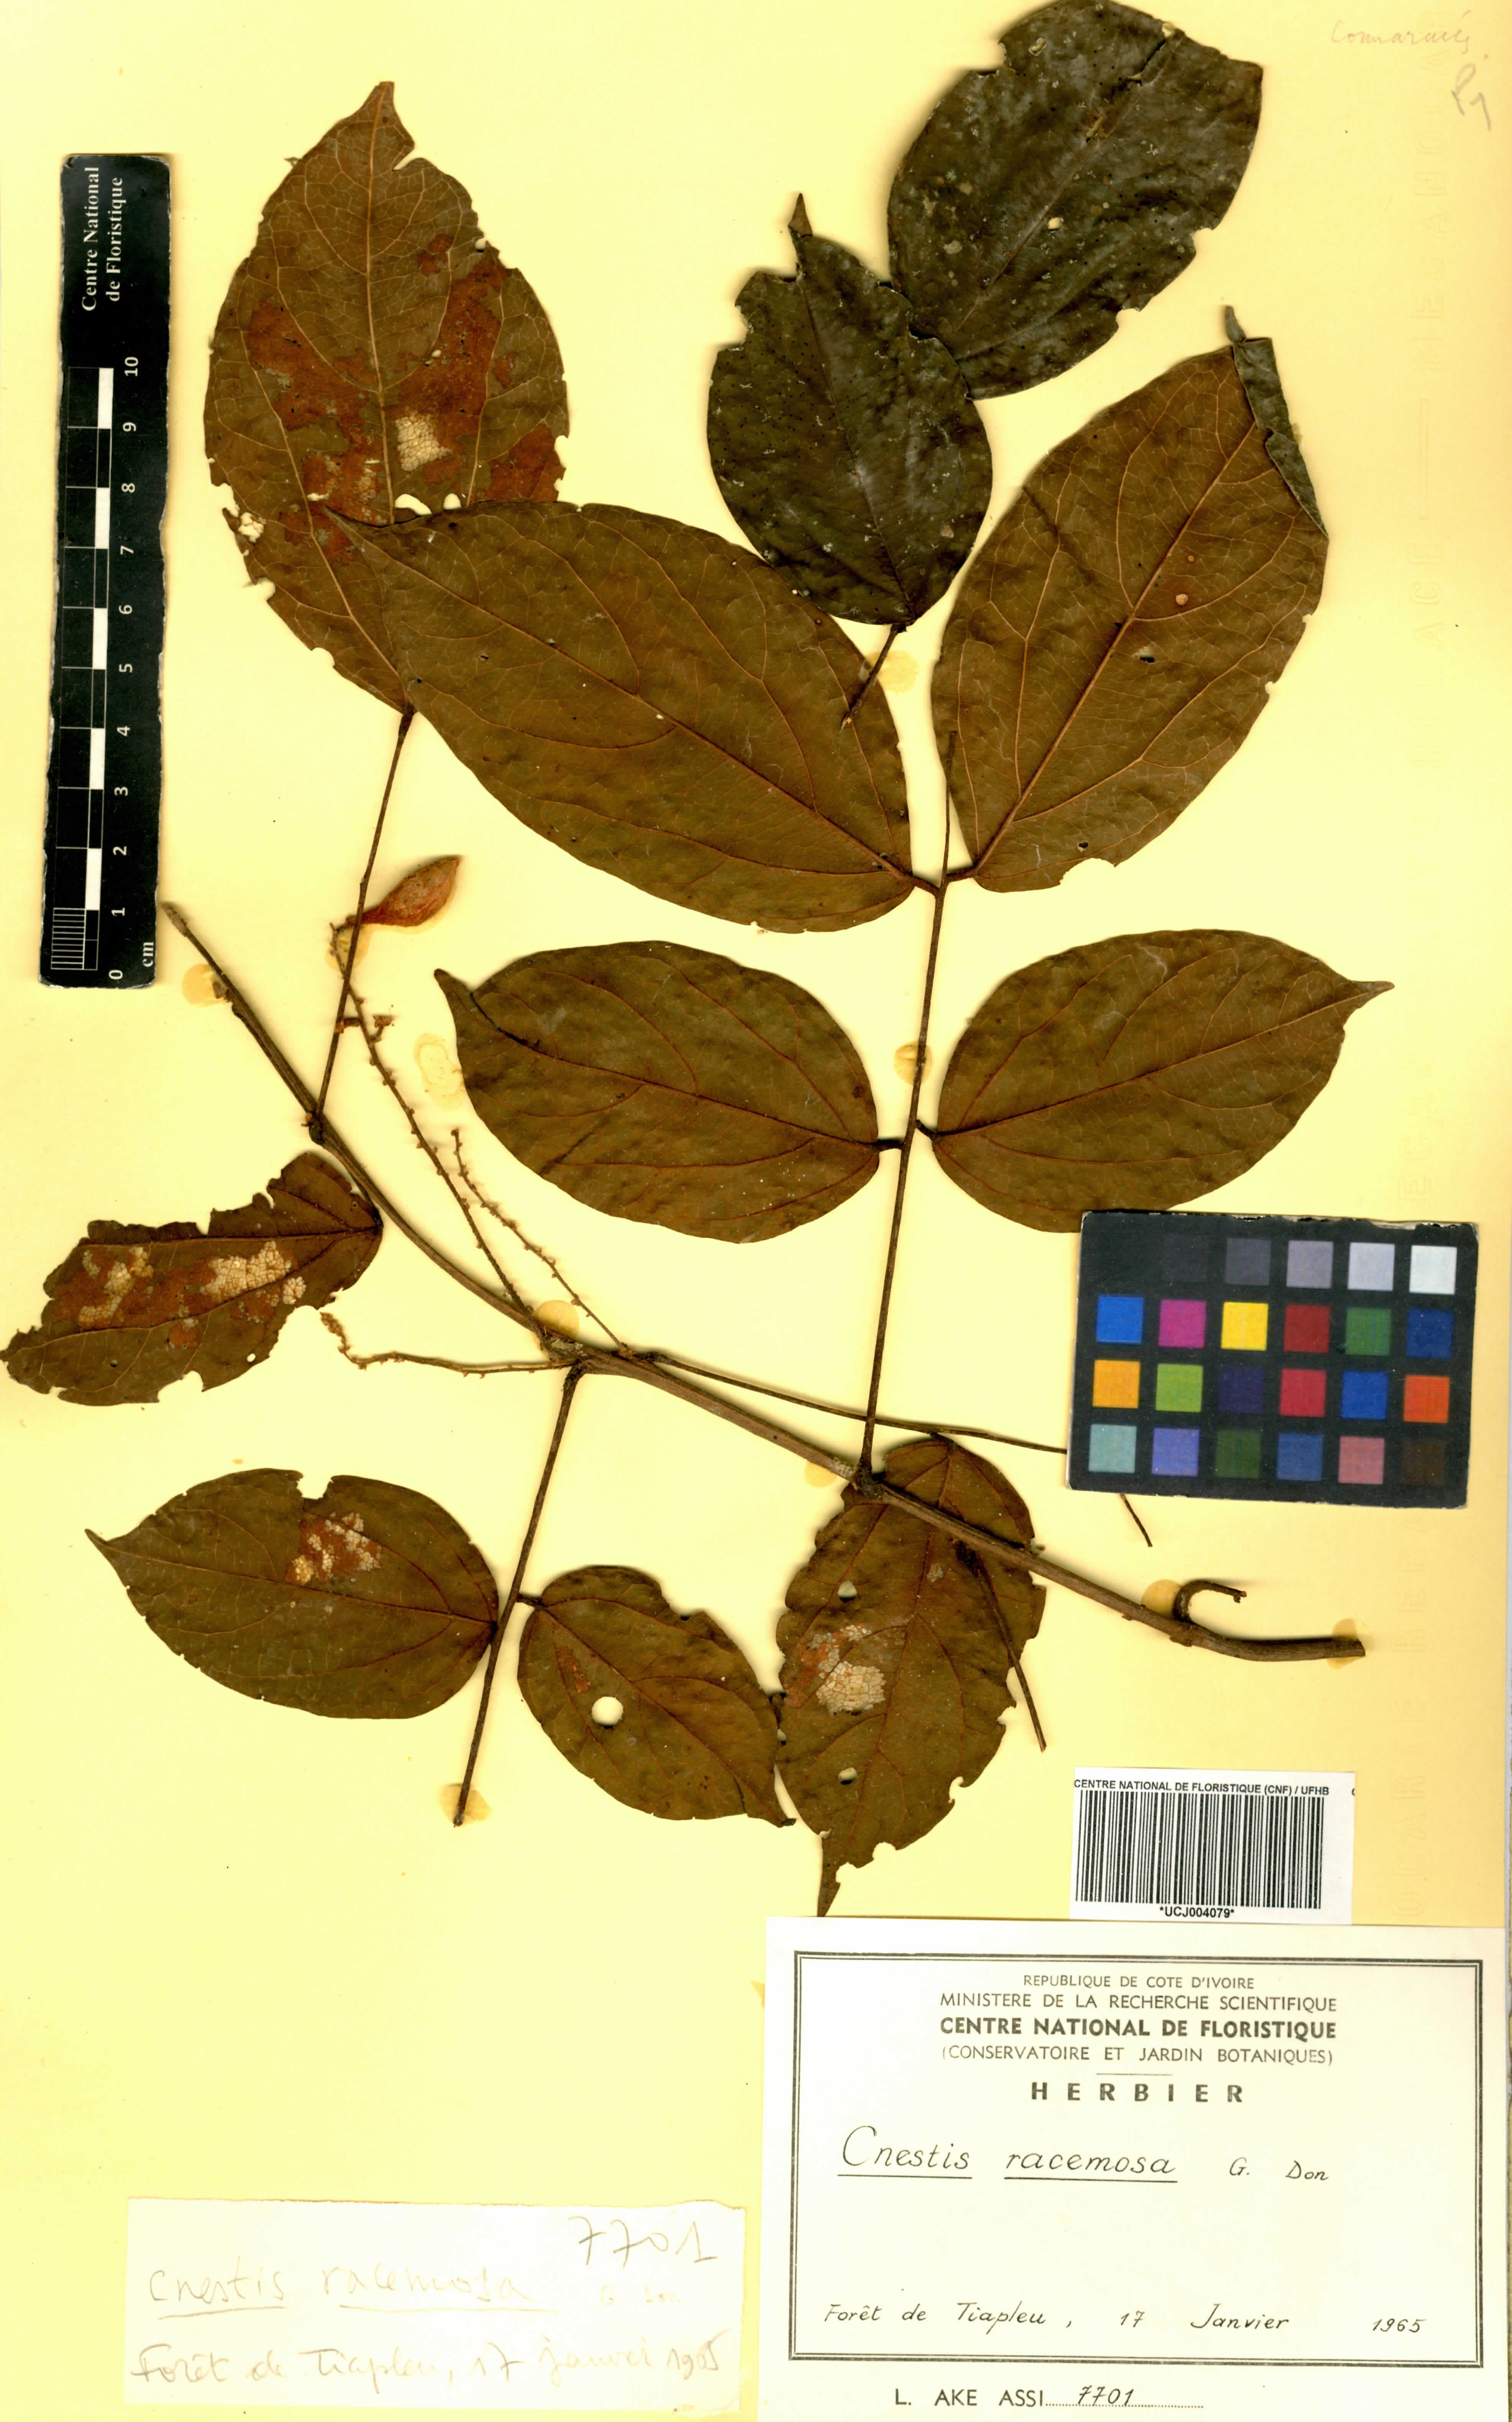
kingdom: Plantae
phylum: Tracheophyta
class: Magnoliopsida
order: Oxalidales
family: Connaraceae
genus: Cnestis
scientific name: Cnestis racemosa
